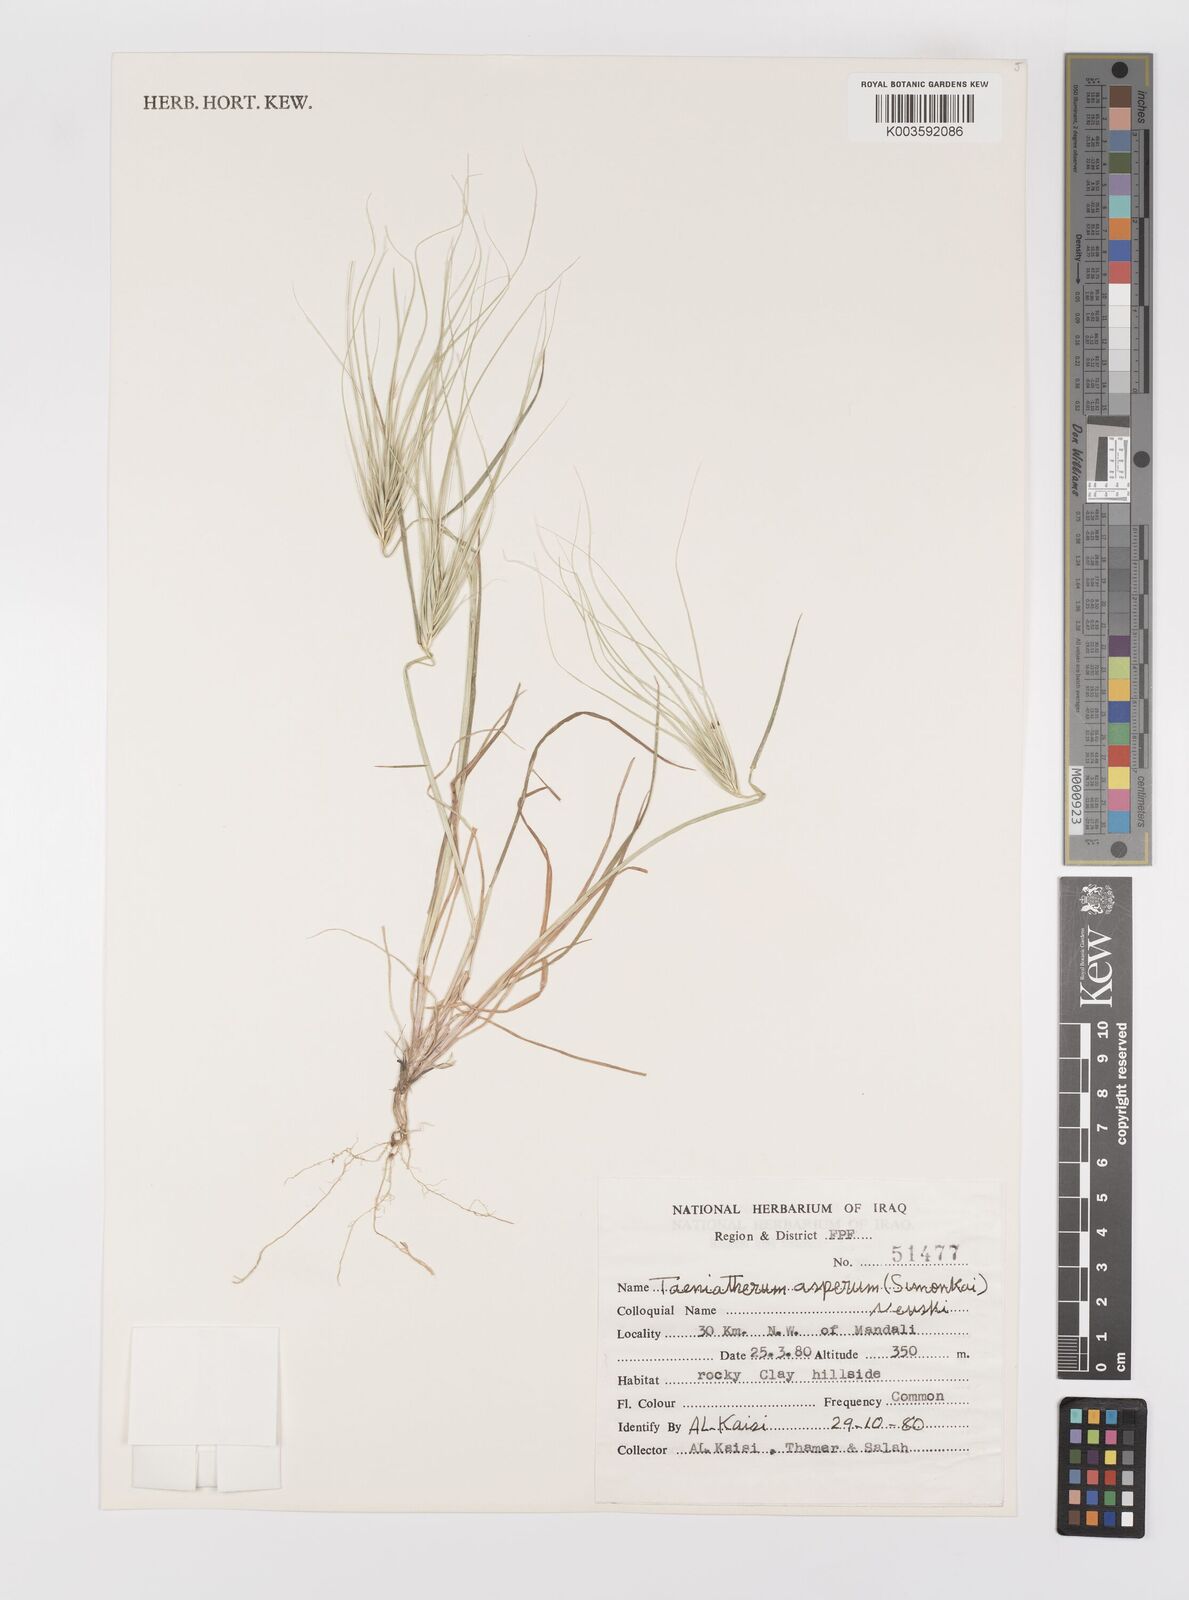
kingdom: Plantae
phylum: Tracheophyta
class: Liliopsida
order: Poales
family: Poaceae
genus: Taeniatherum
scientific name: Taeniatherum caput-medusae
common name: Medusahead
